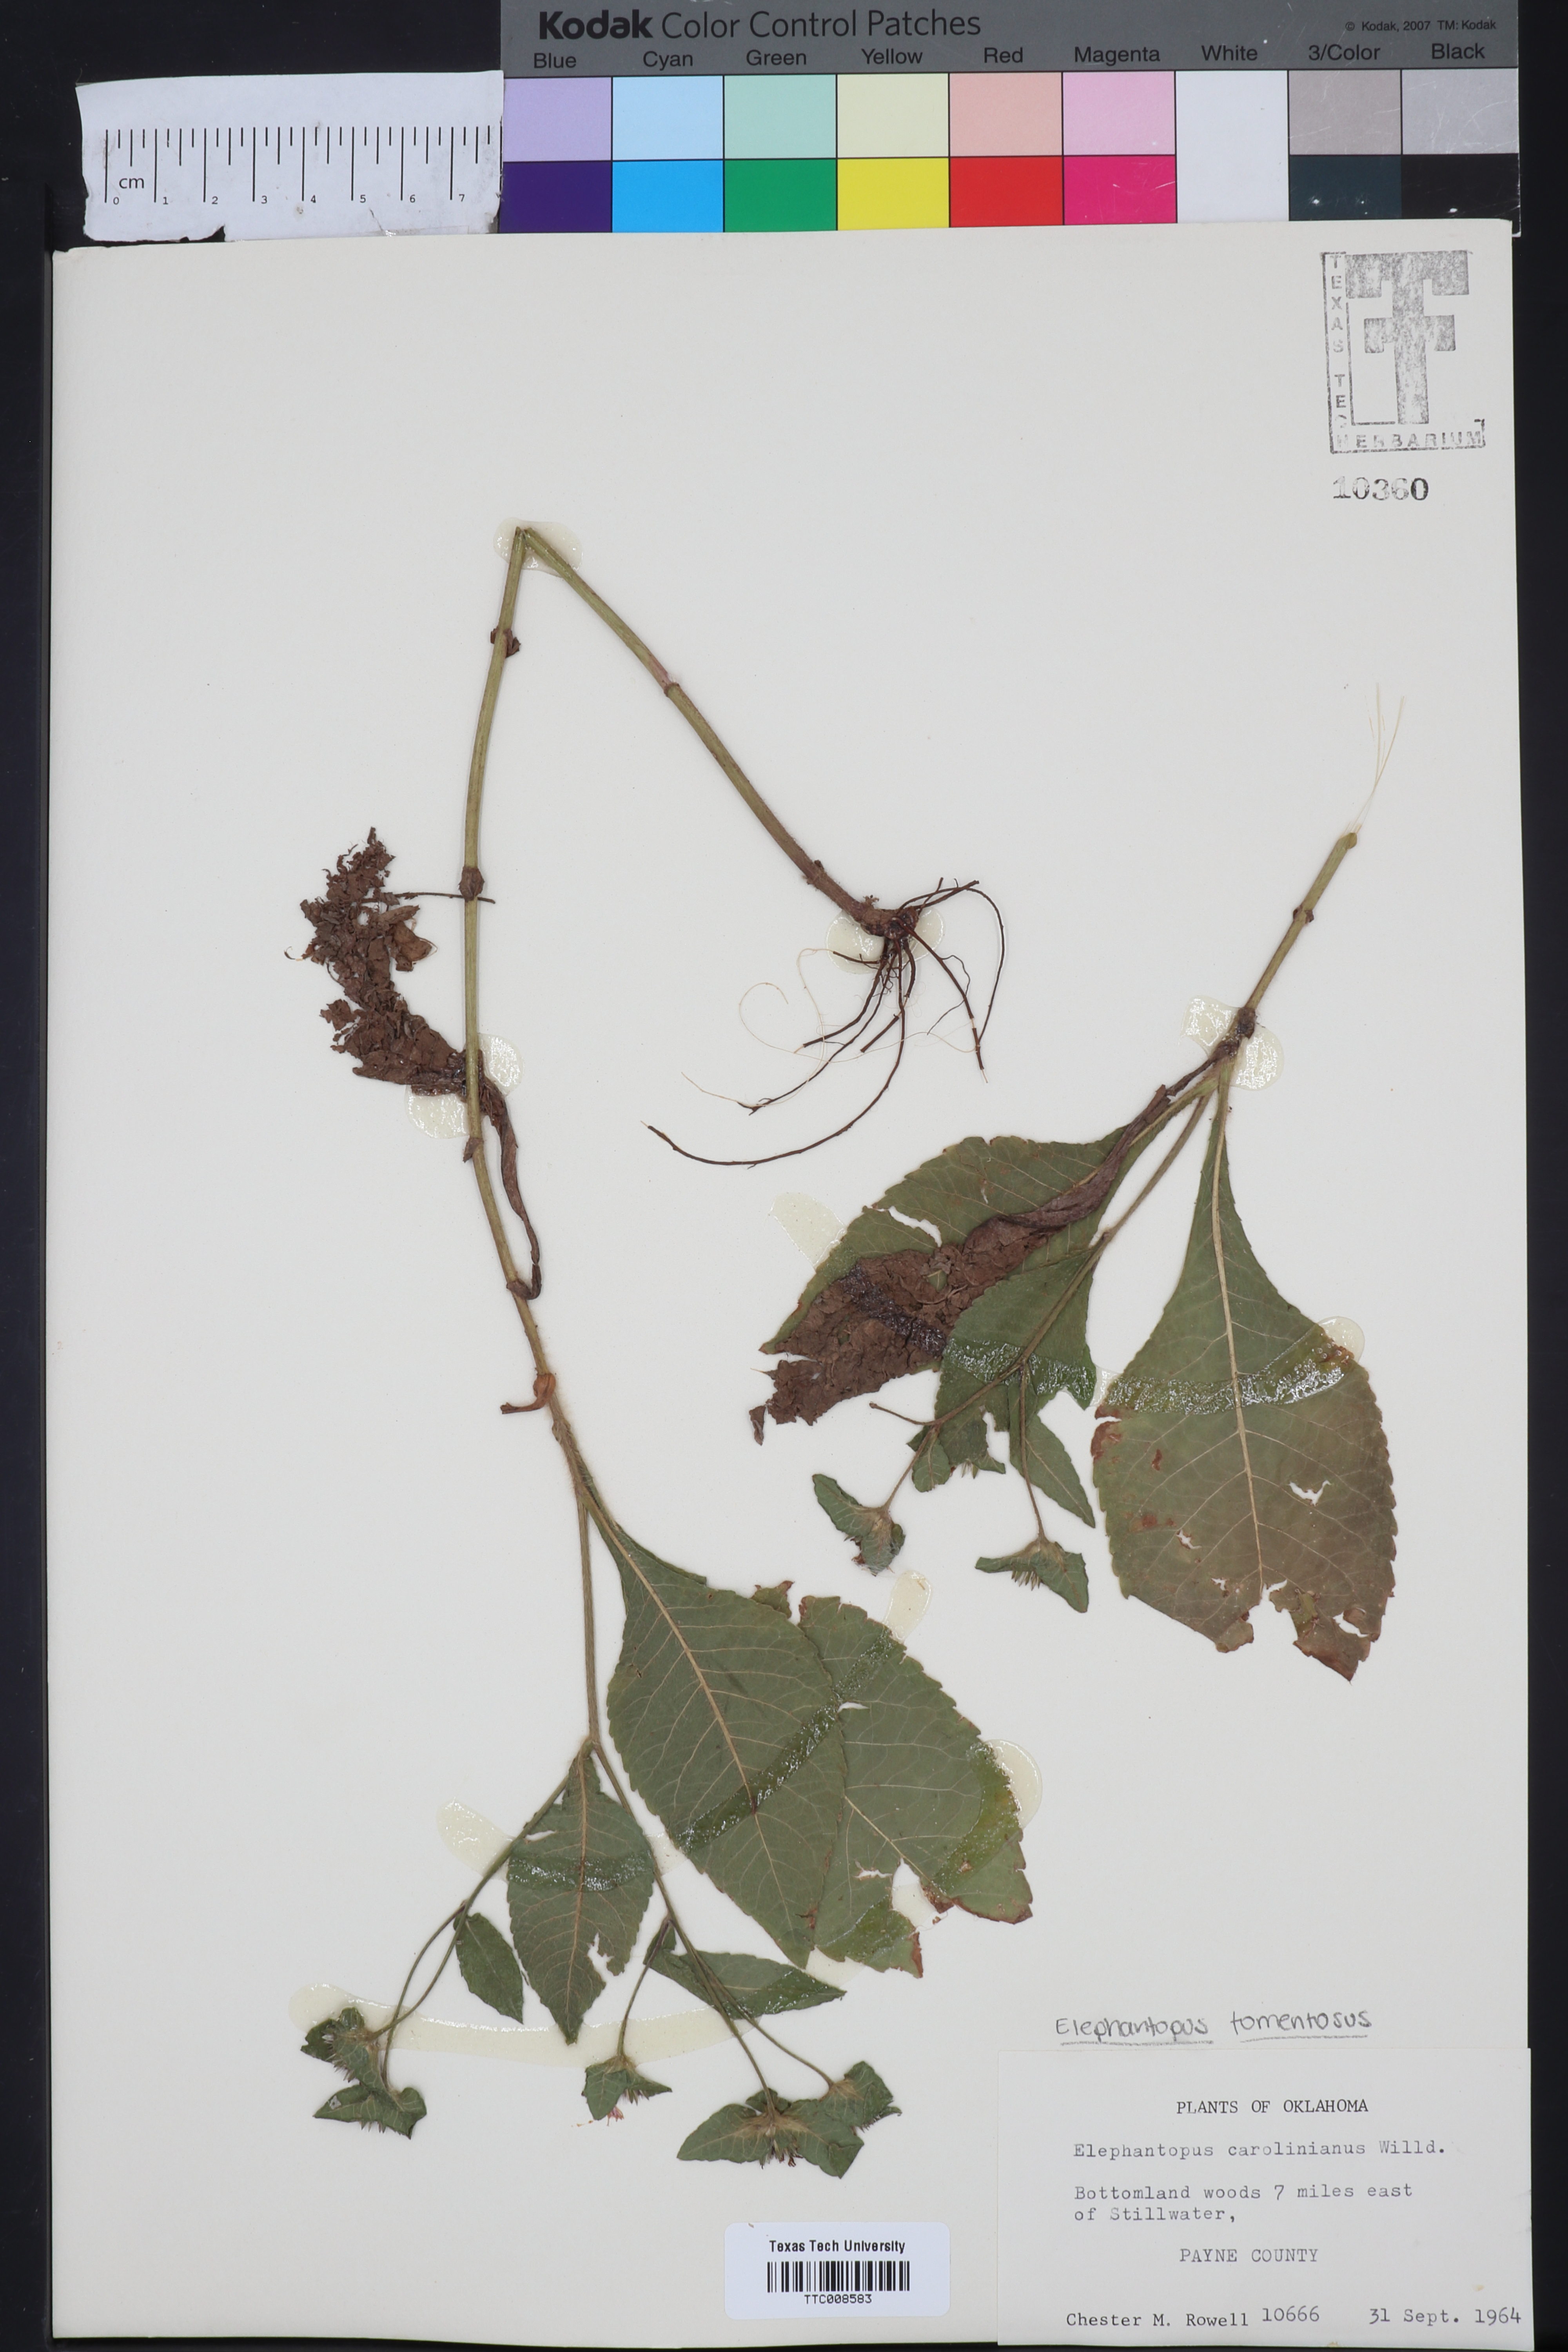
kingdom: Plantae
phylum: Tracheophyta
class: Magnoliopsida
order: Asterales
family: Asteraceae
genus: Elephantopus
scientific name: Elephantopus carolinianus
